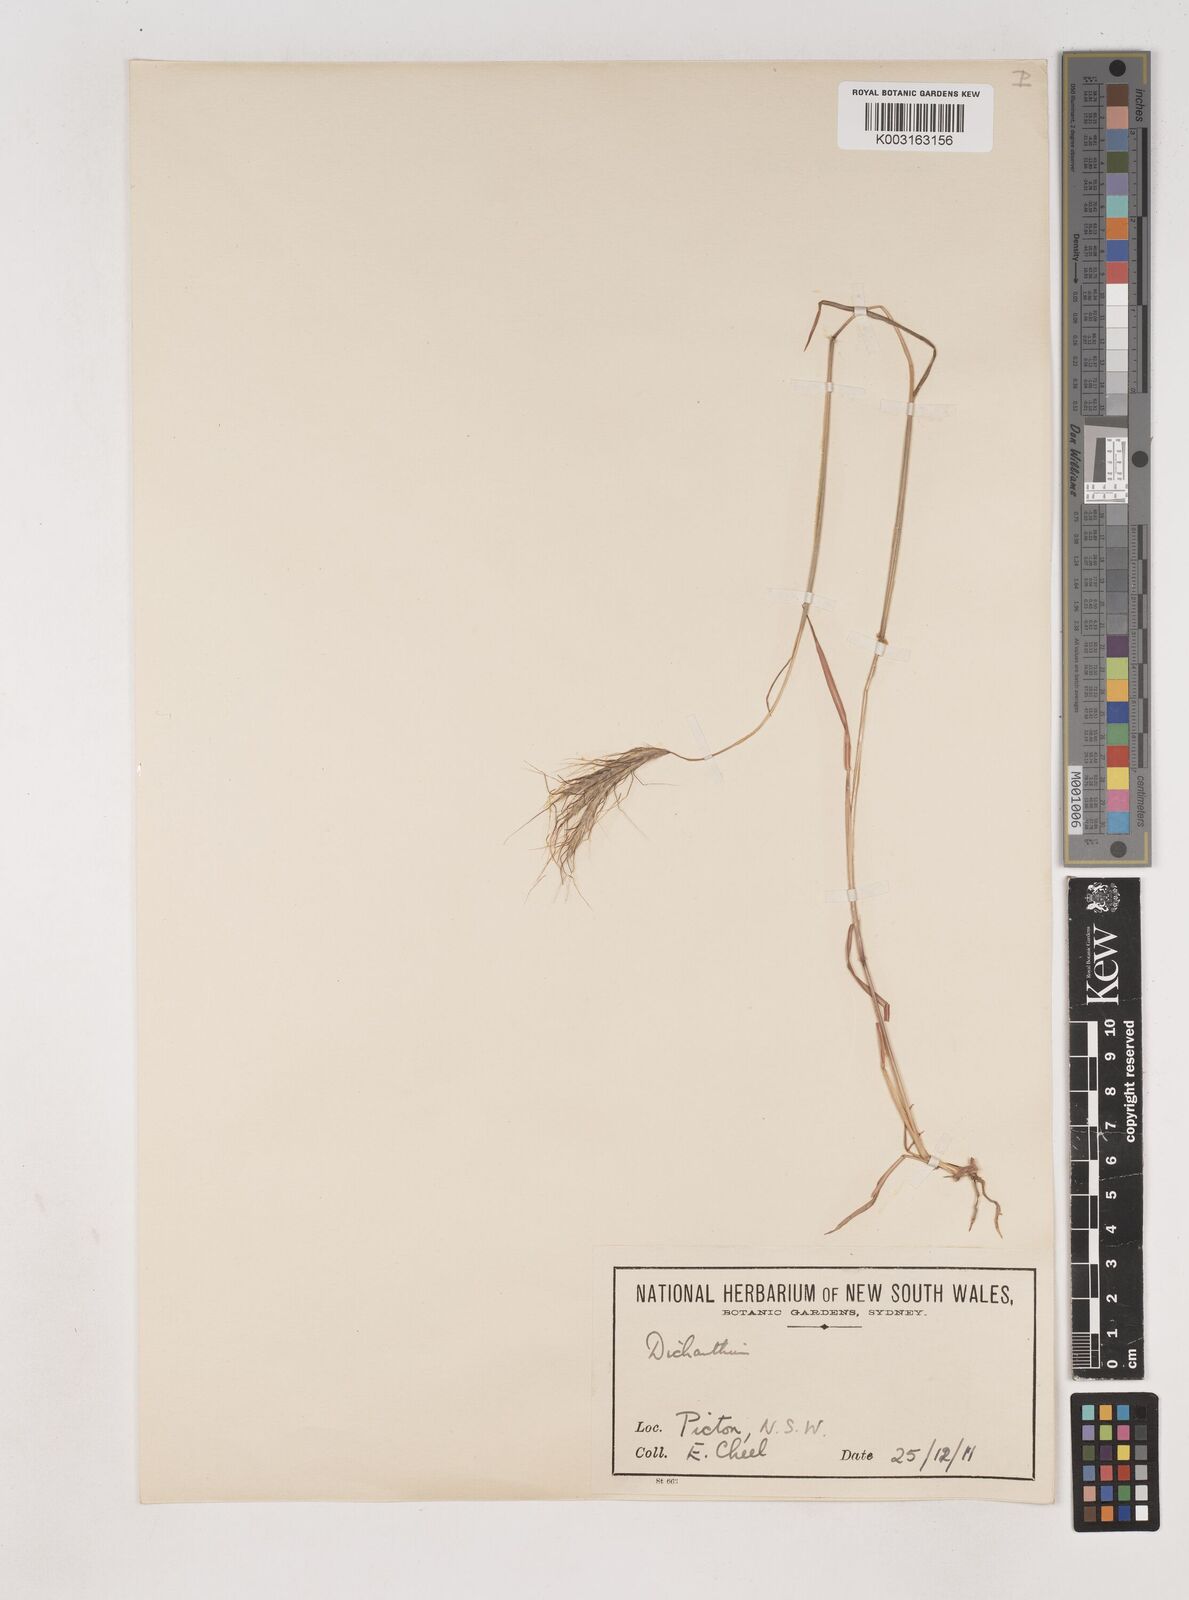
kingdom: Plantae
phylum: Tracheophyta
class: Liliopsida
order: Poales
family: Poaceae
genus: Dichanthium
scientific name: Dichanthium sericeum
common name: Silky bluestem
